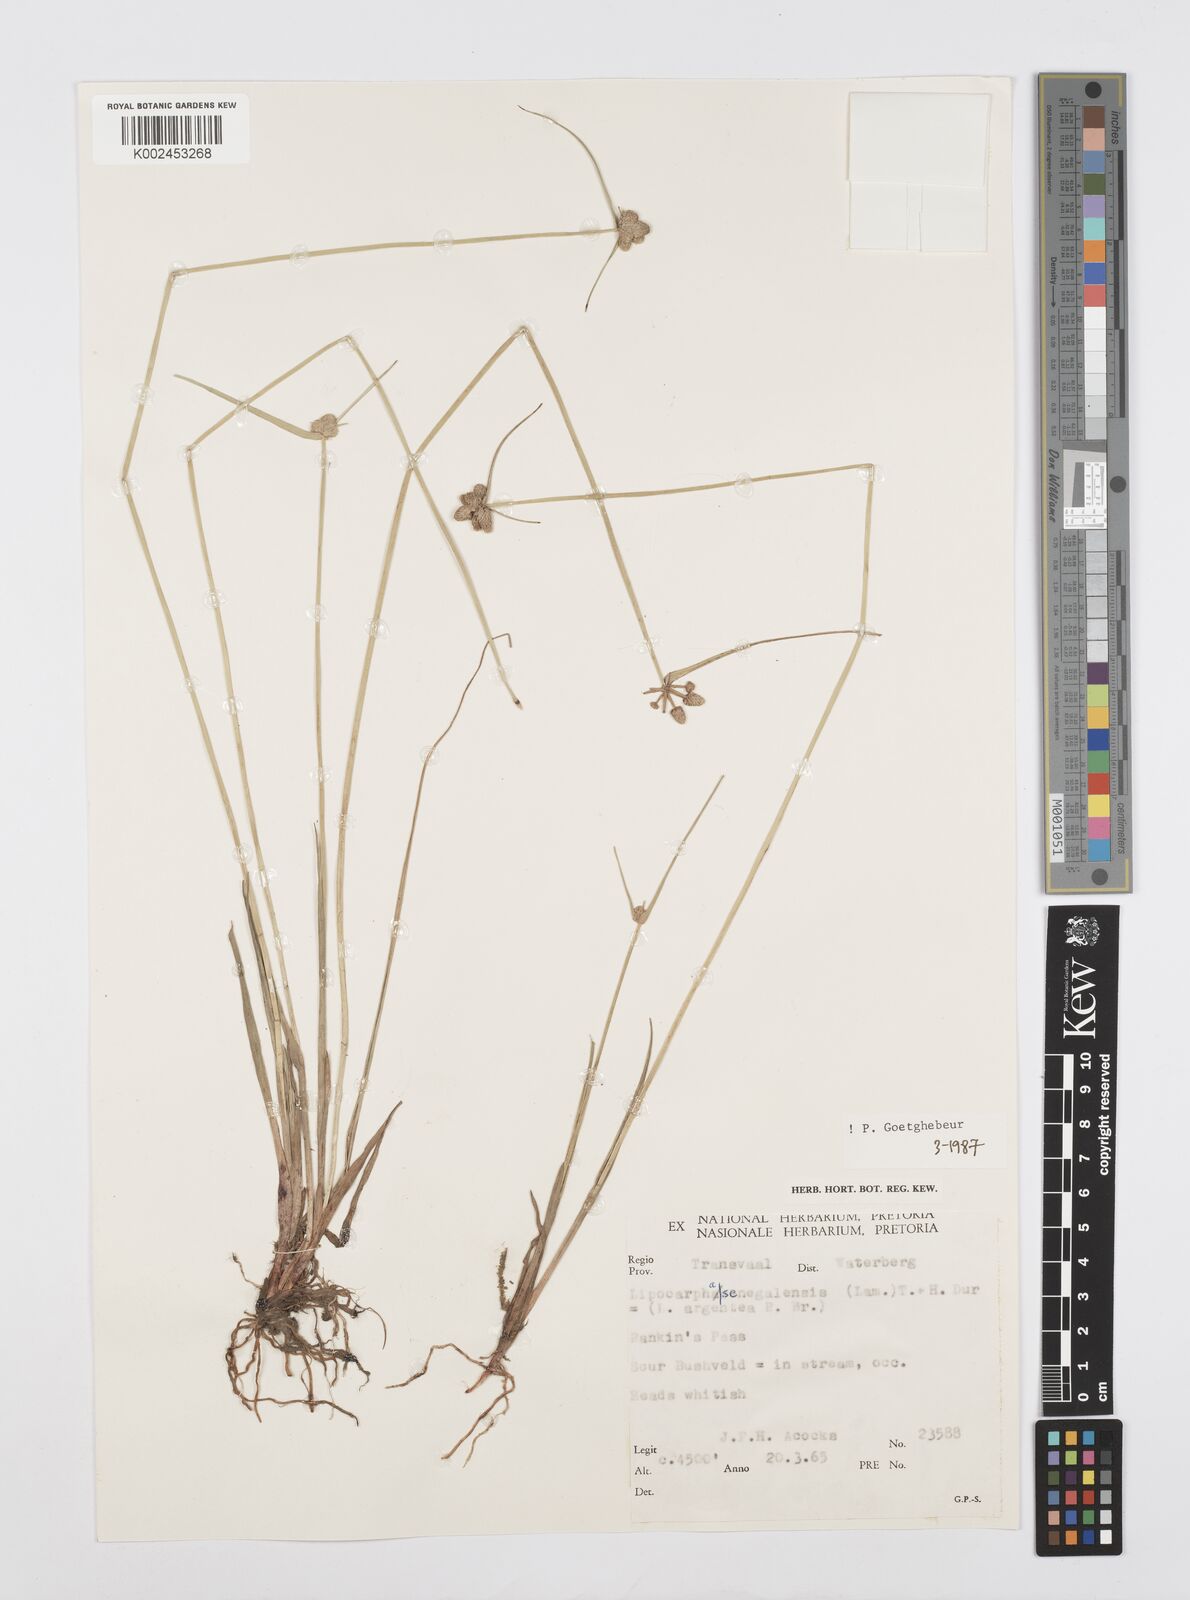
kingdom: Plantae
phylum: Tracheophyta
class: Liliopsida
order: Poales
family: Cyperaceae
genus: Cyperus
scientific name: Cyperus albescens
